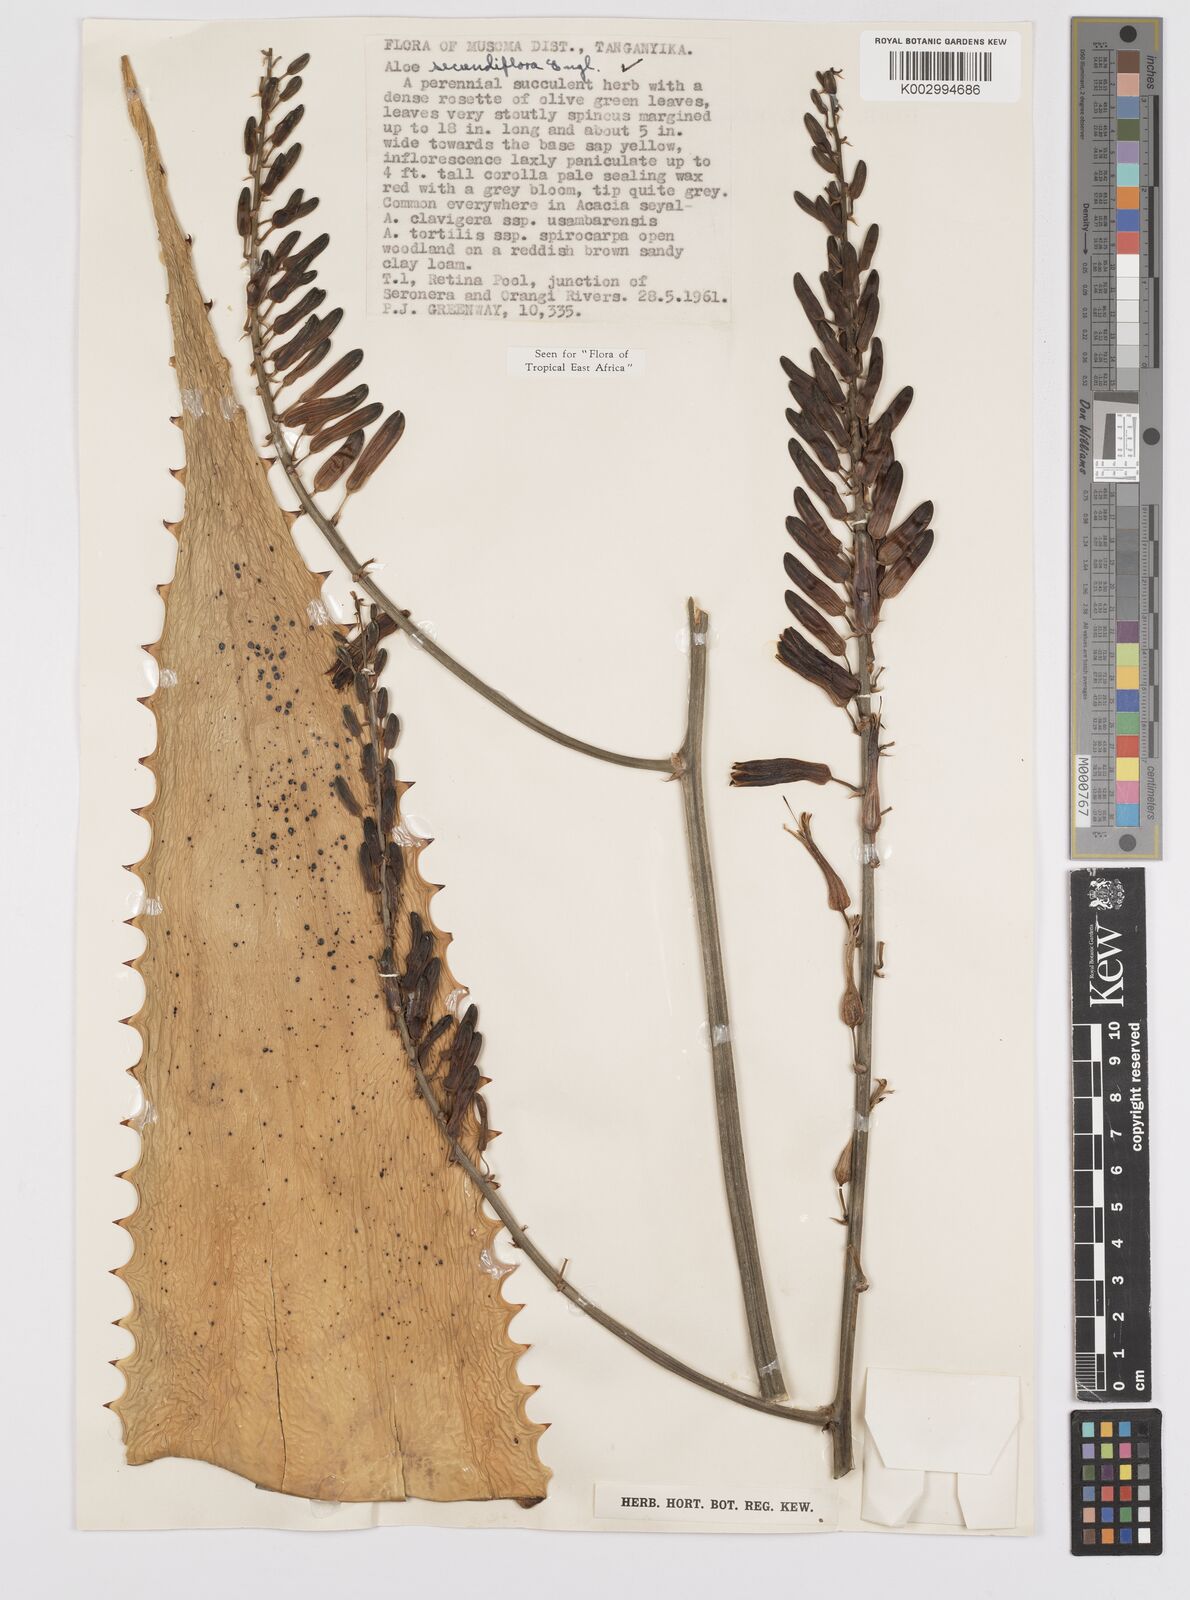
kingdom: Plantae
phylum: Tracheophyta
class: Liliopsida
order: Asparagales
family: Asphodelaceae
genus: Aloe
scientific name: Aloe secundiflora
